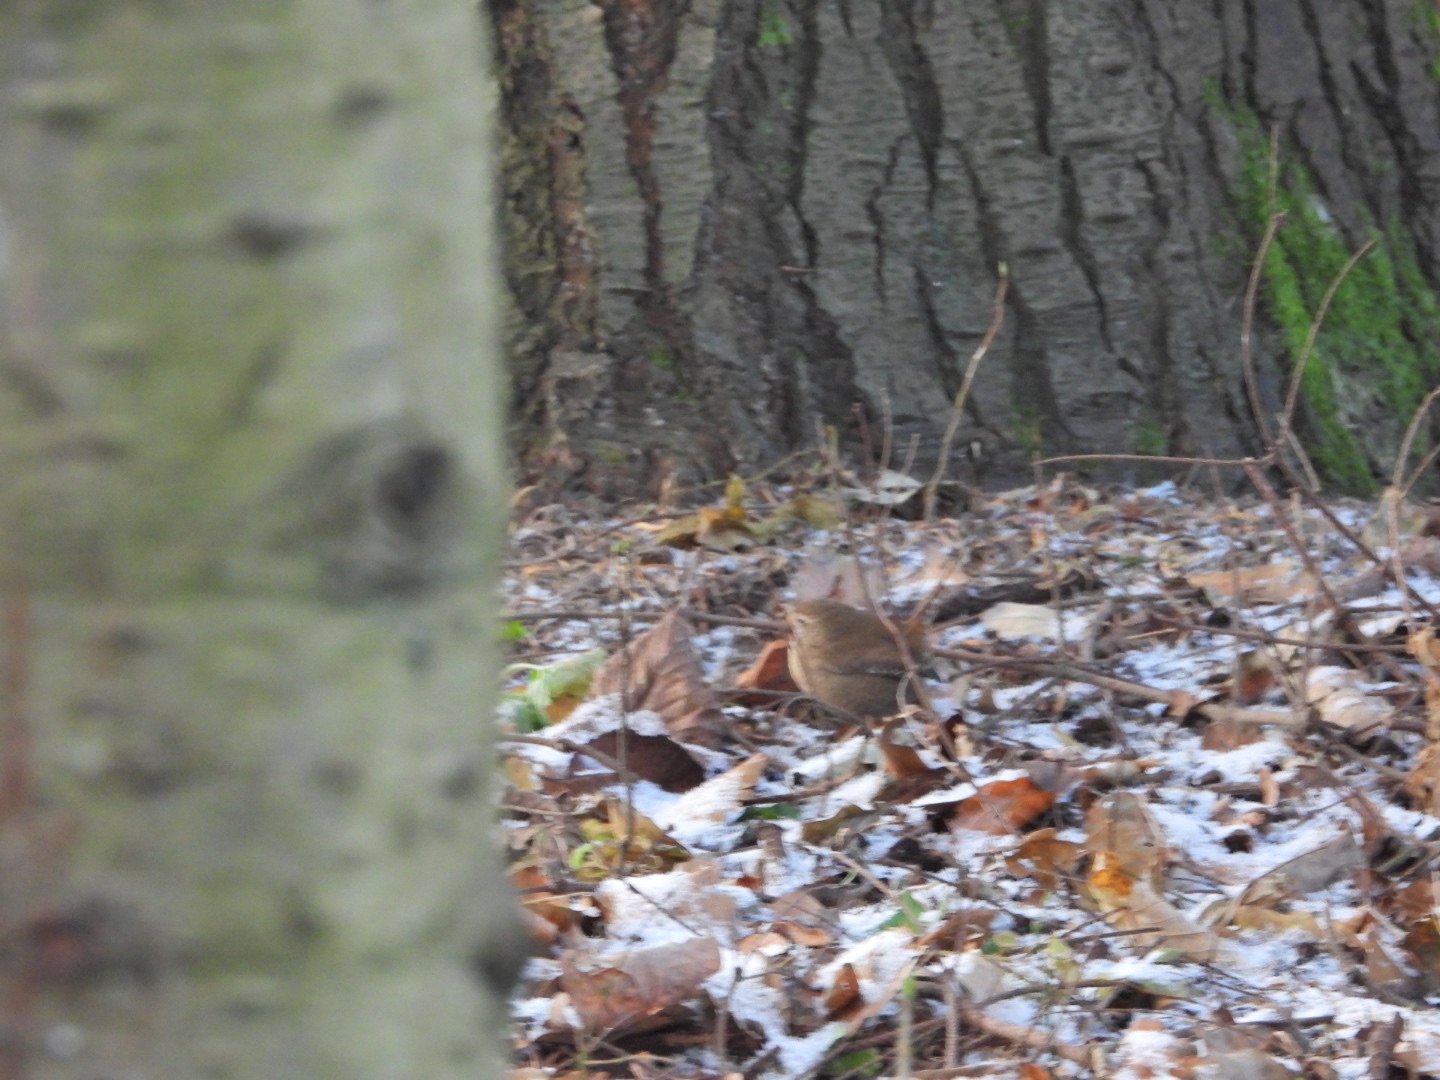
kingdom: Animalia
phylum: Chordata
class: Aves
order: Passeriformes
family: Troglodytidae
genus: Troglodytes
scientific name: Troglodytes troglodytes
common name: Gærdesmutte
